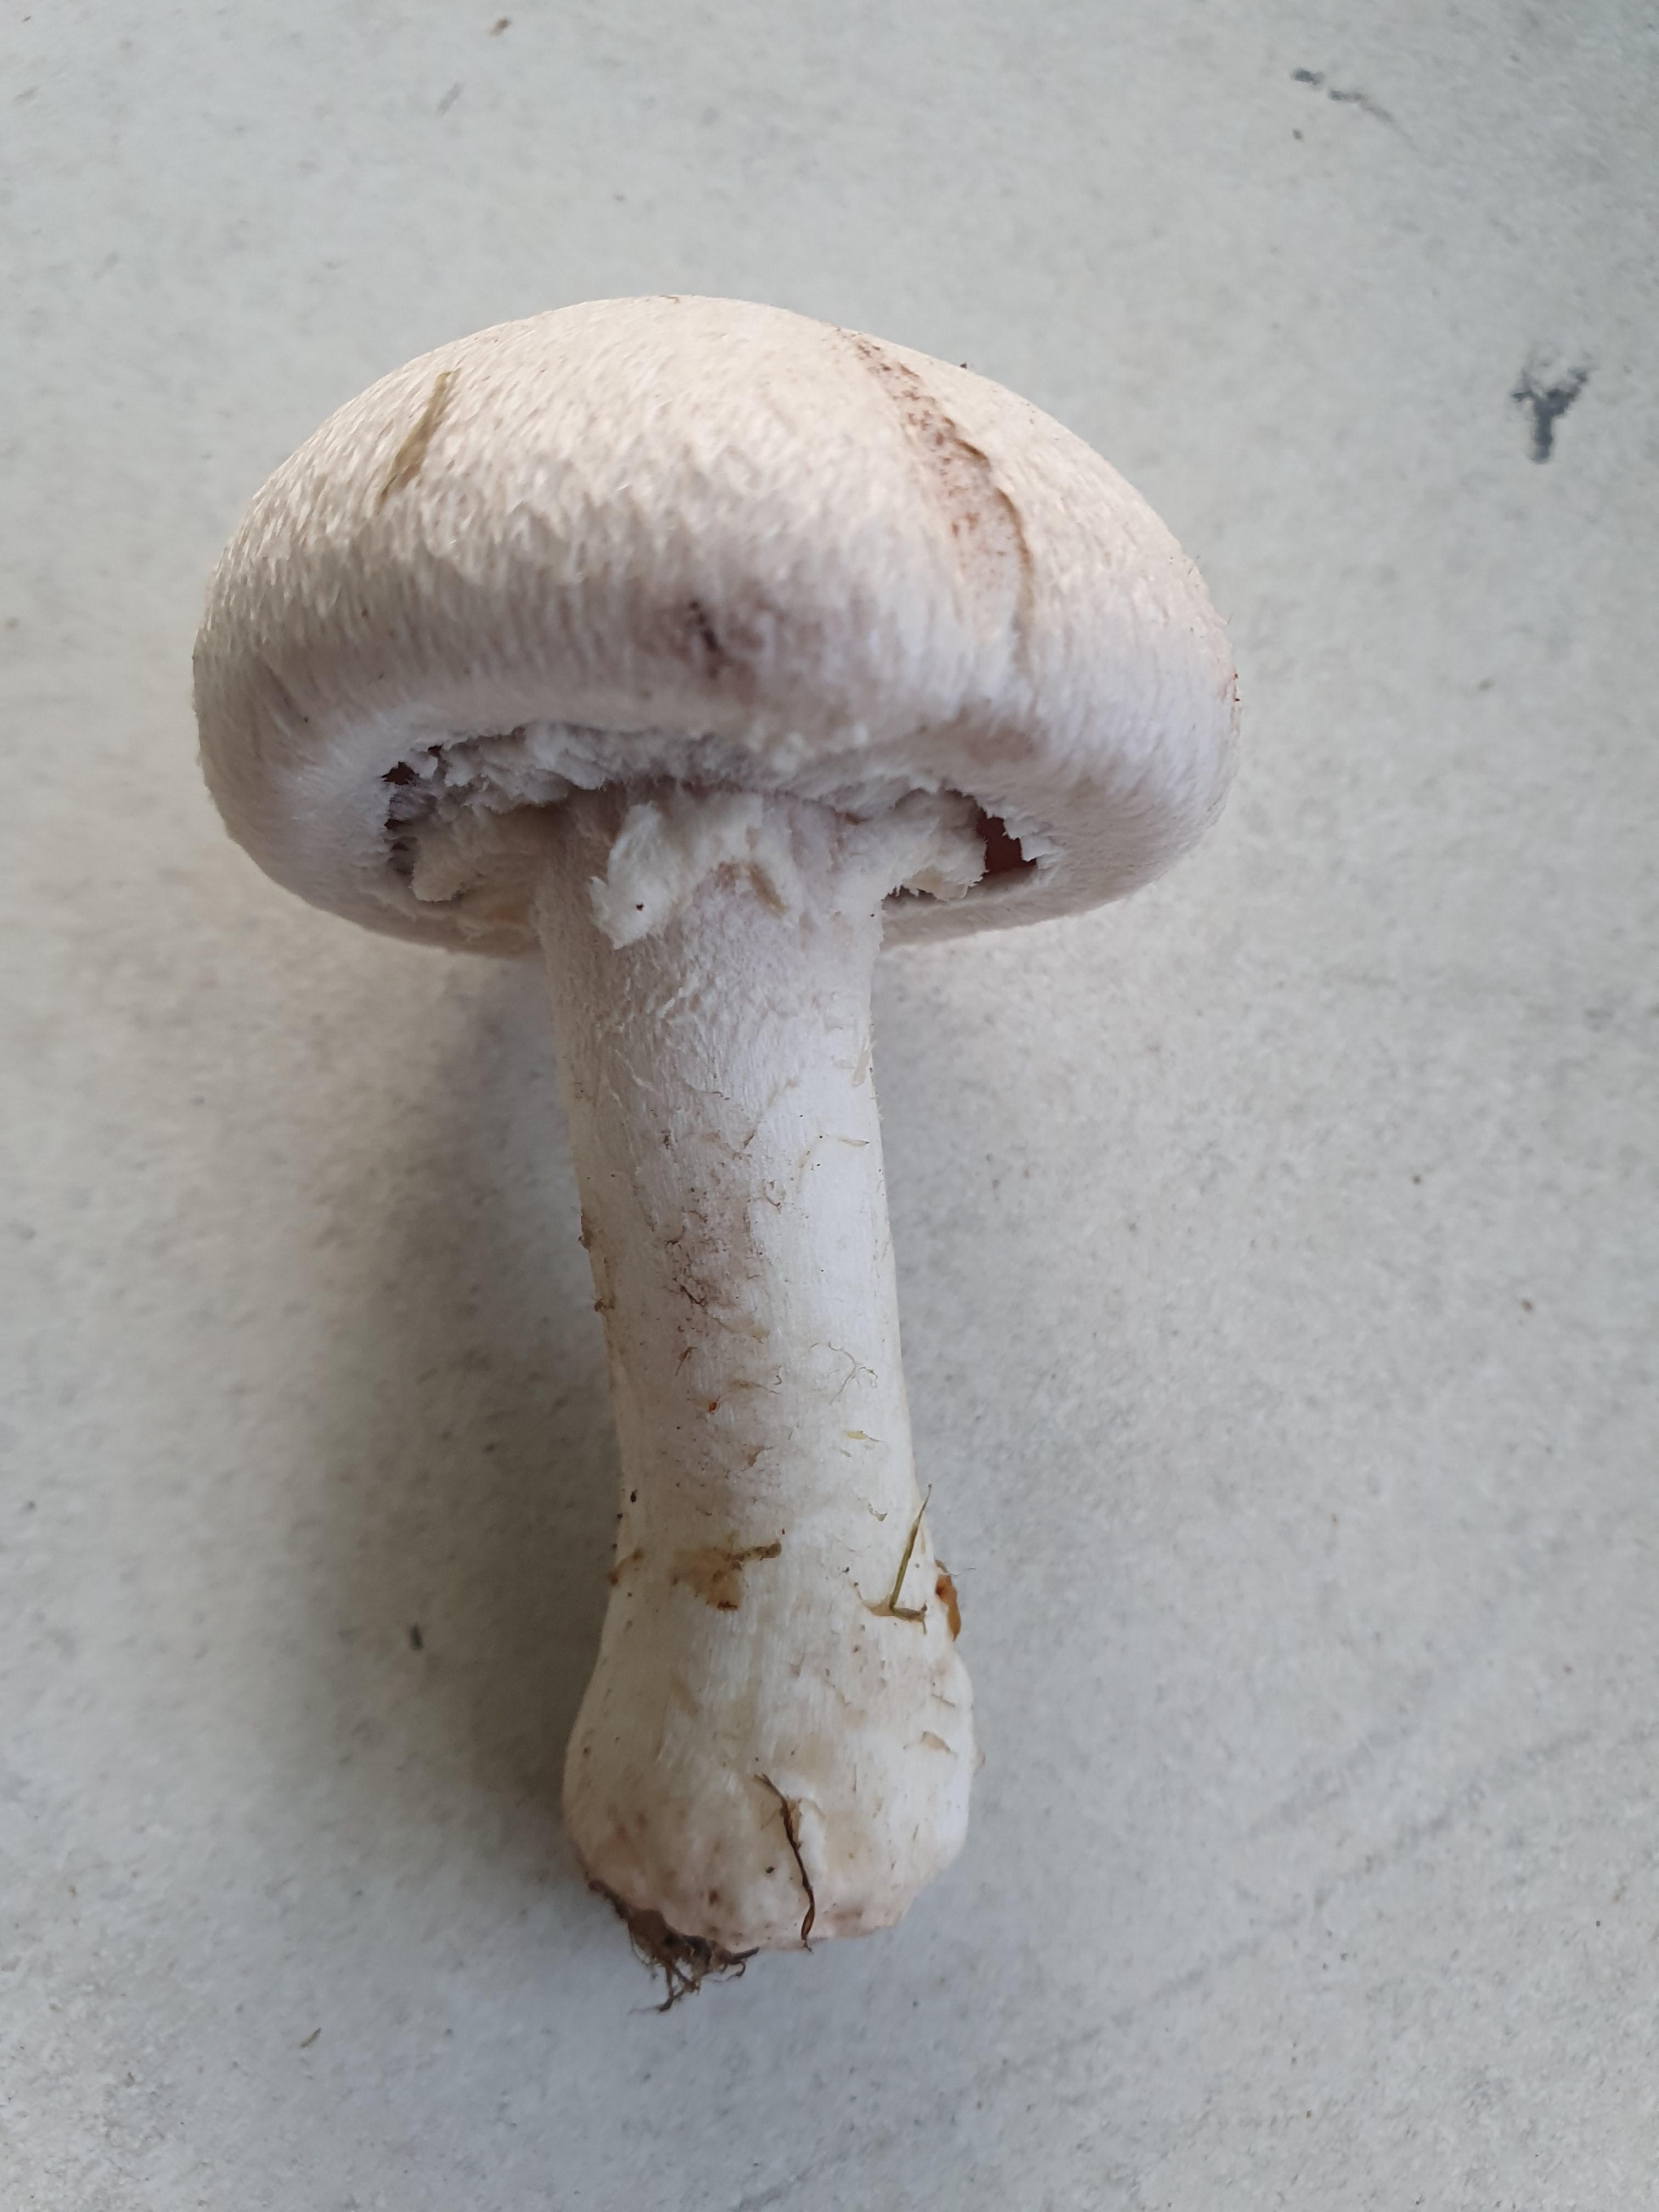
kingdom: Fungi
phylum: Basidiomycota
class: Agaricomycetes
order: Agaricales
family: Agaricaceae
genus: Agaricus
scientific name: Agaricus
